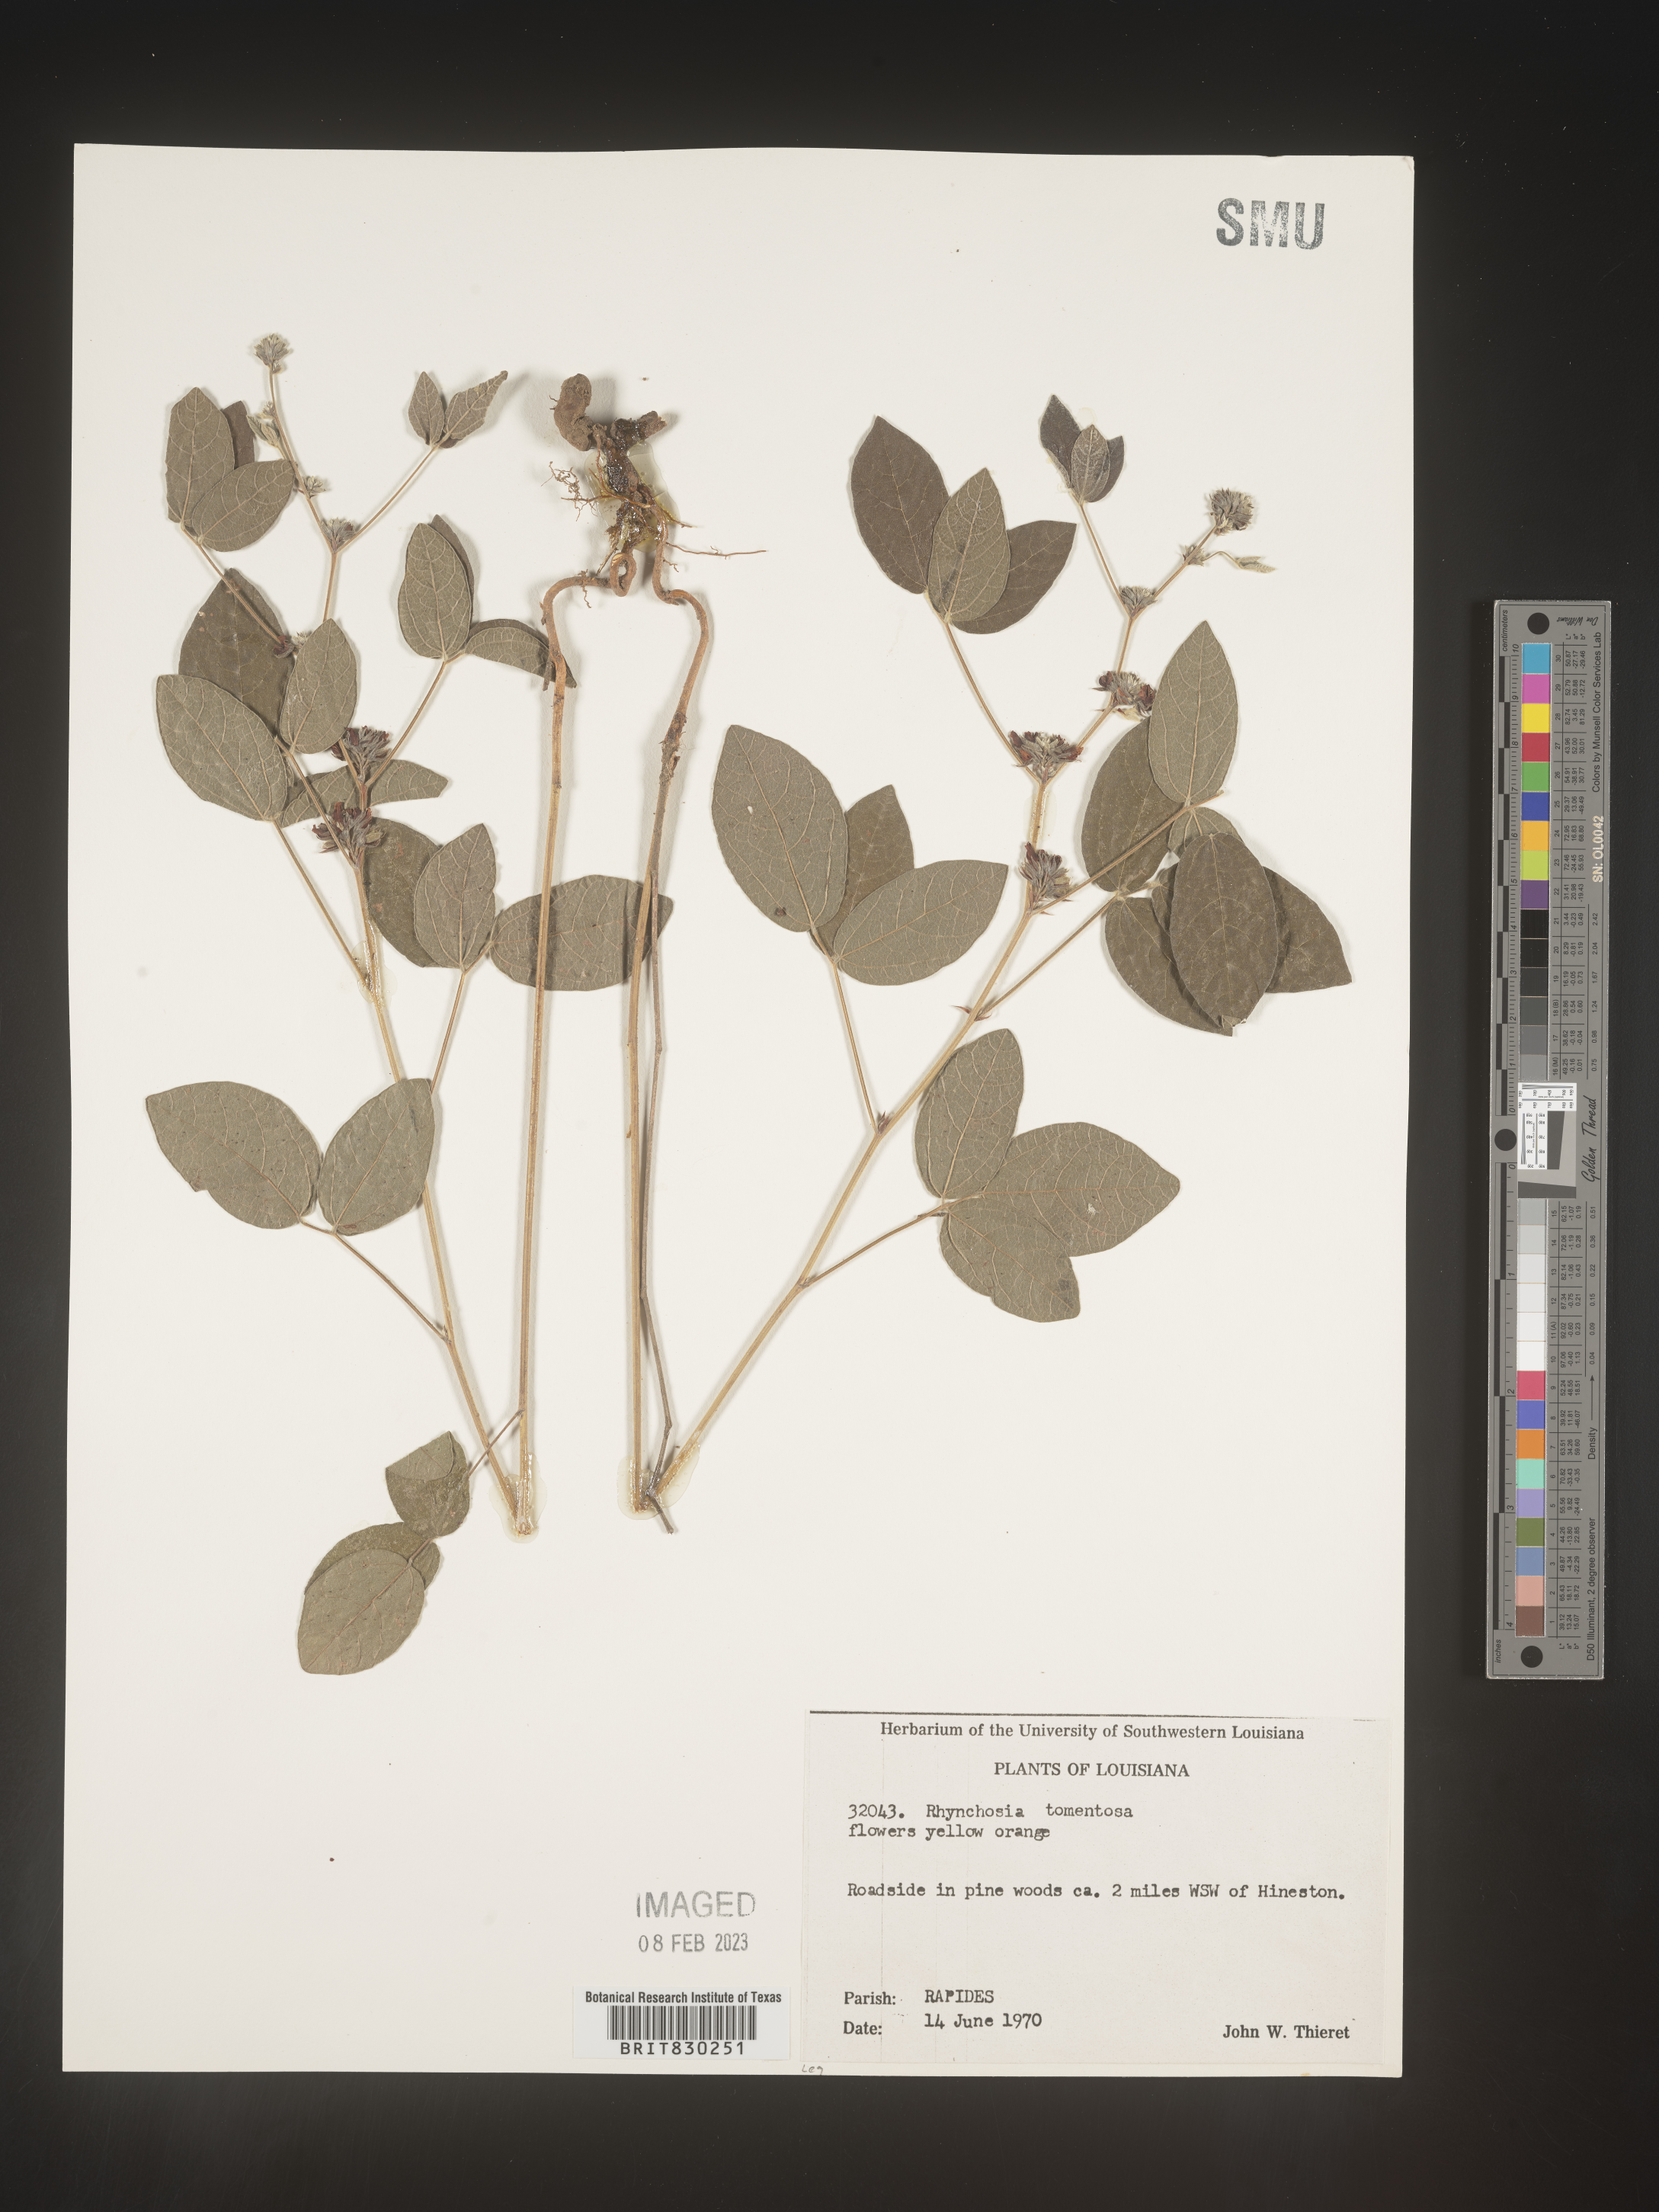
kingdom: Plantae
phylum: Tracheophyta
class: Magnoliopsida
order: Fabales
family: Fabaceae
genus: Rhynchosia
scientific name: Rhynchosia rothii
